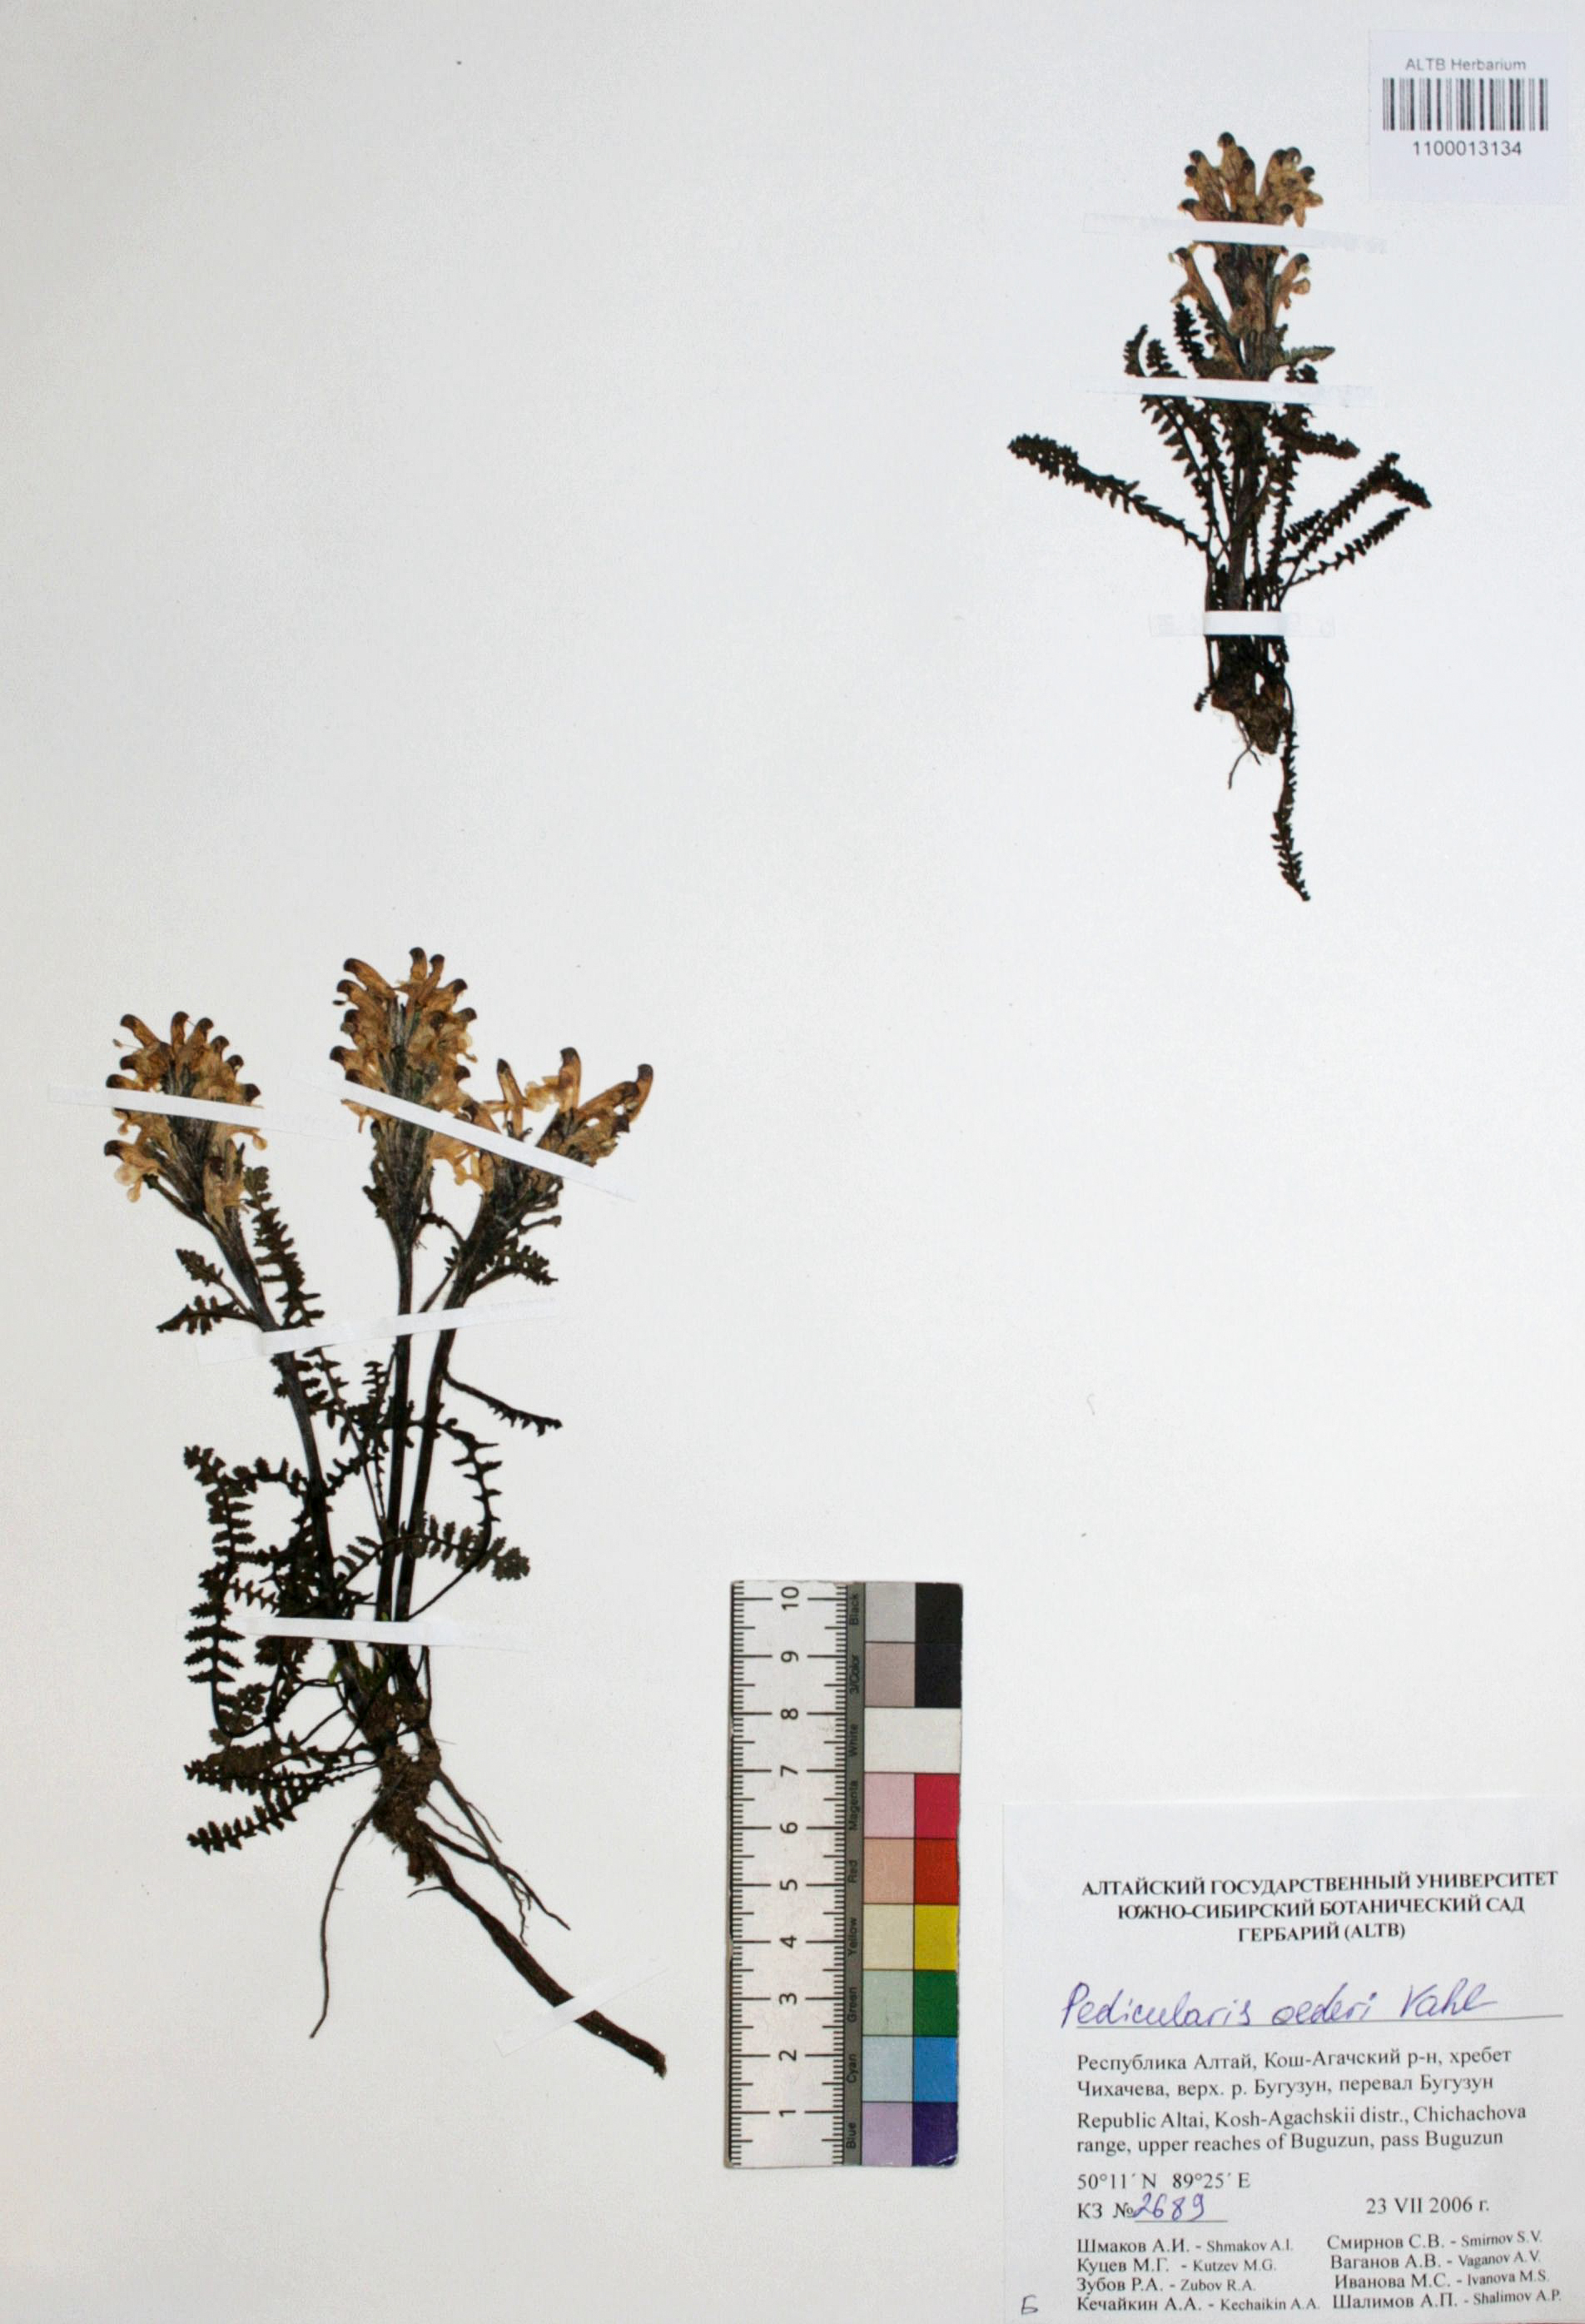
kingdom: Plantae
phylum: Tracheophyta
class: Magnoliopsida
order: Caryophyllales
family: Caryophyllaceae
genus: Silene
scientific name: Silene graminifolia
